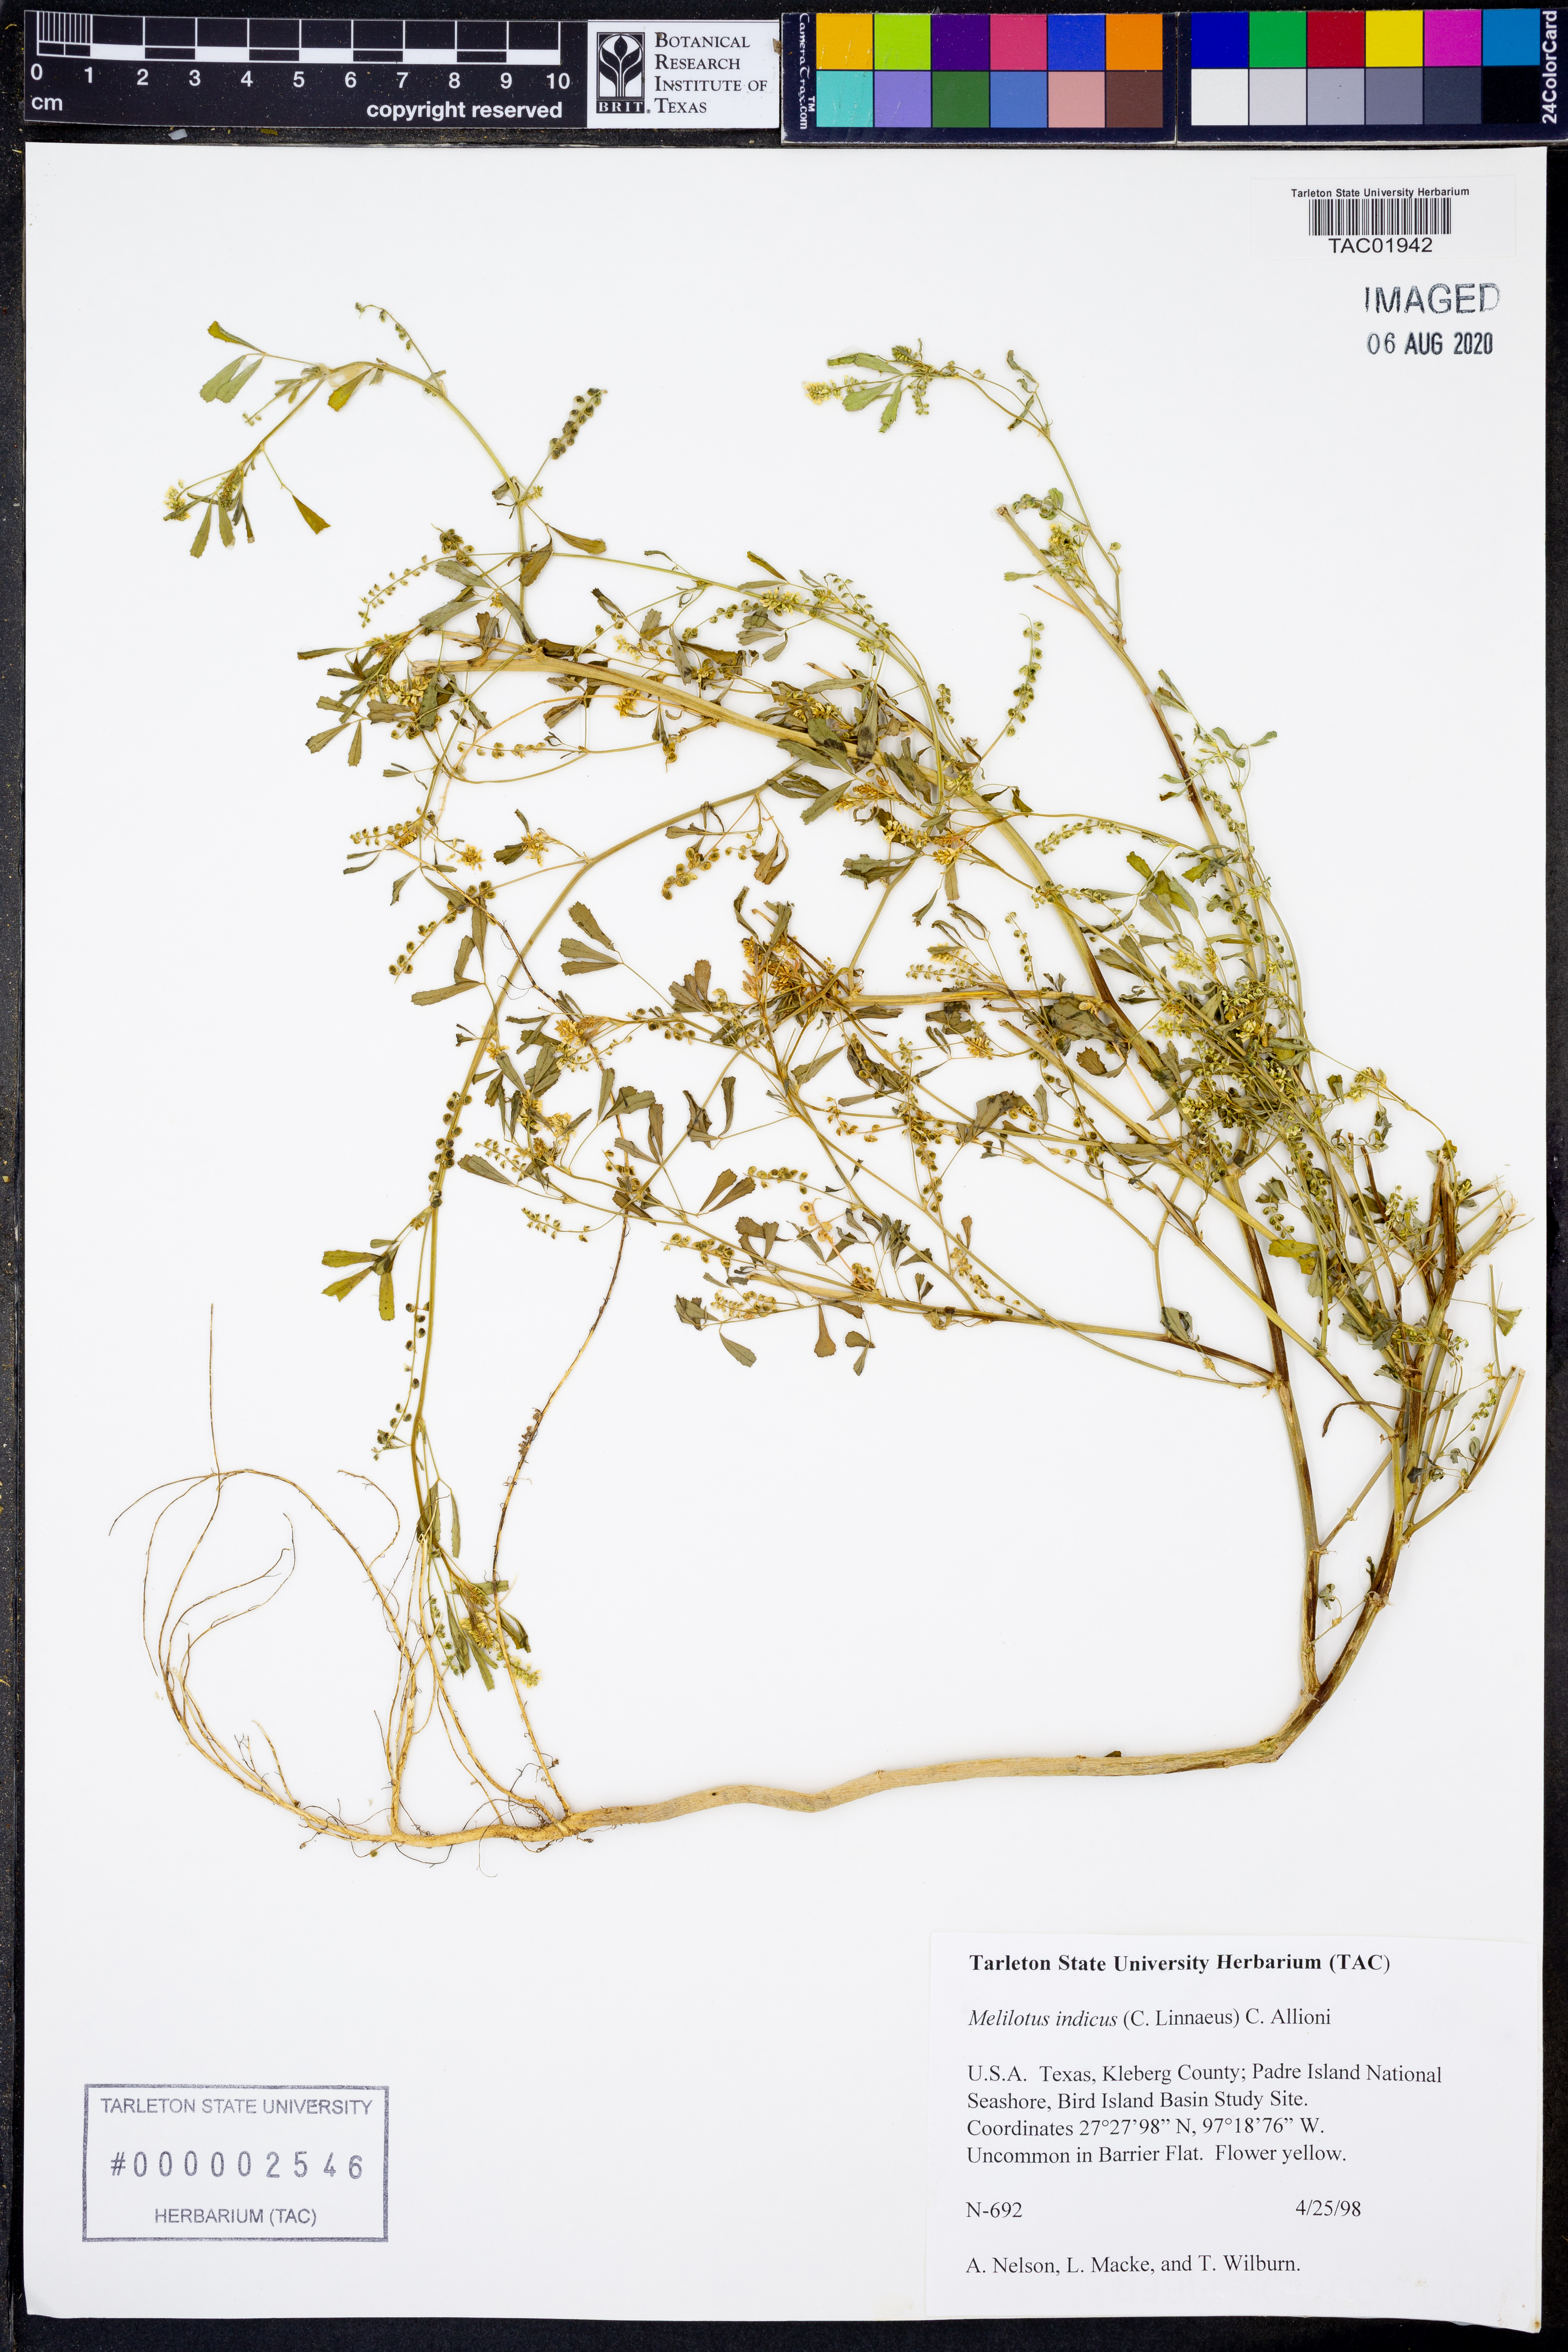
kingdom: Plantae
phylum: Tracheophyta
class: Magnoliopsida
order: Fabales
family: Fabaceae
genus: Melilotus
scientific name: Melilotus indicus
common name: Small melilot
